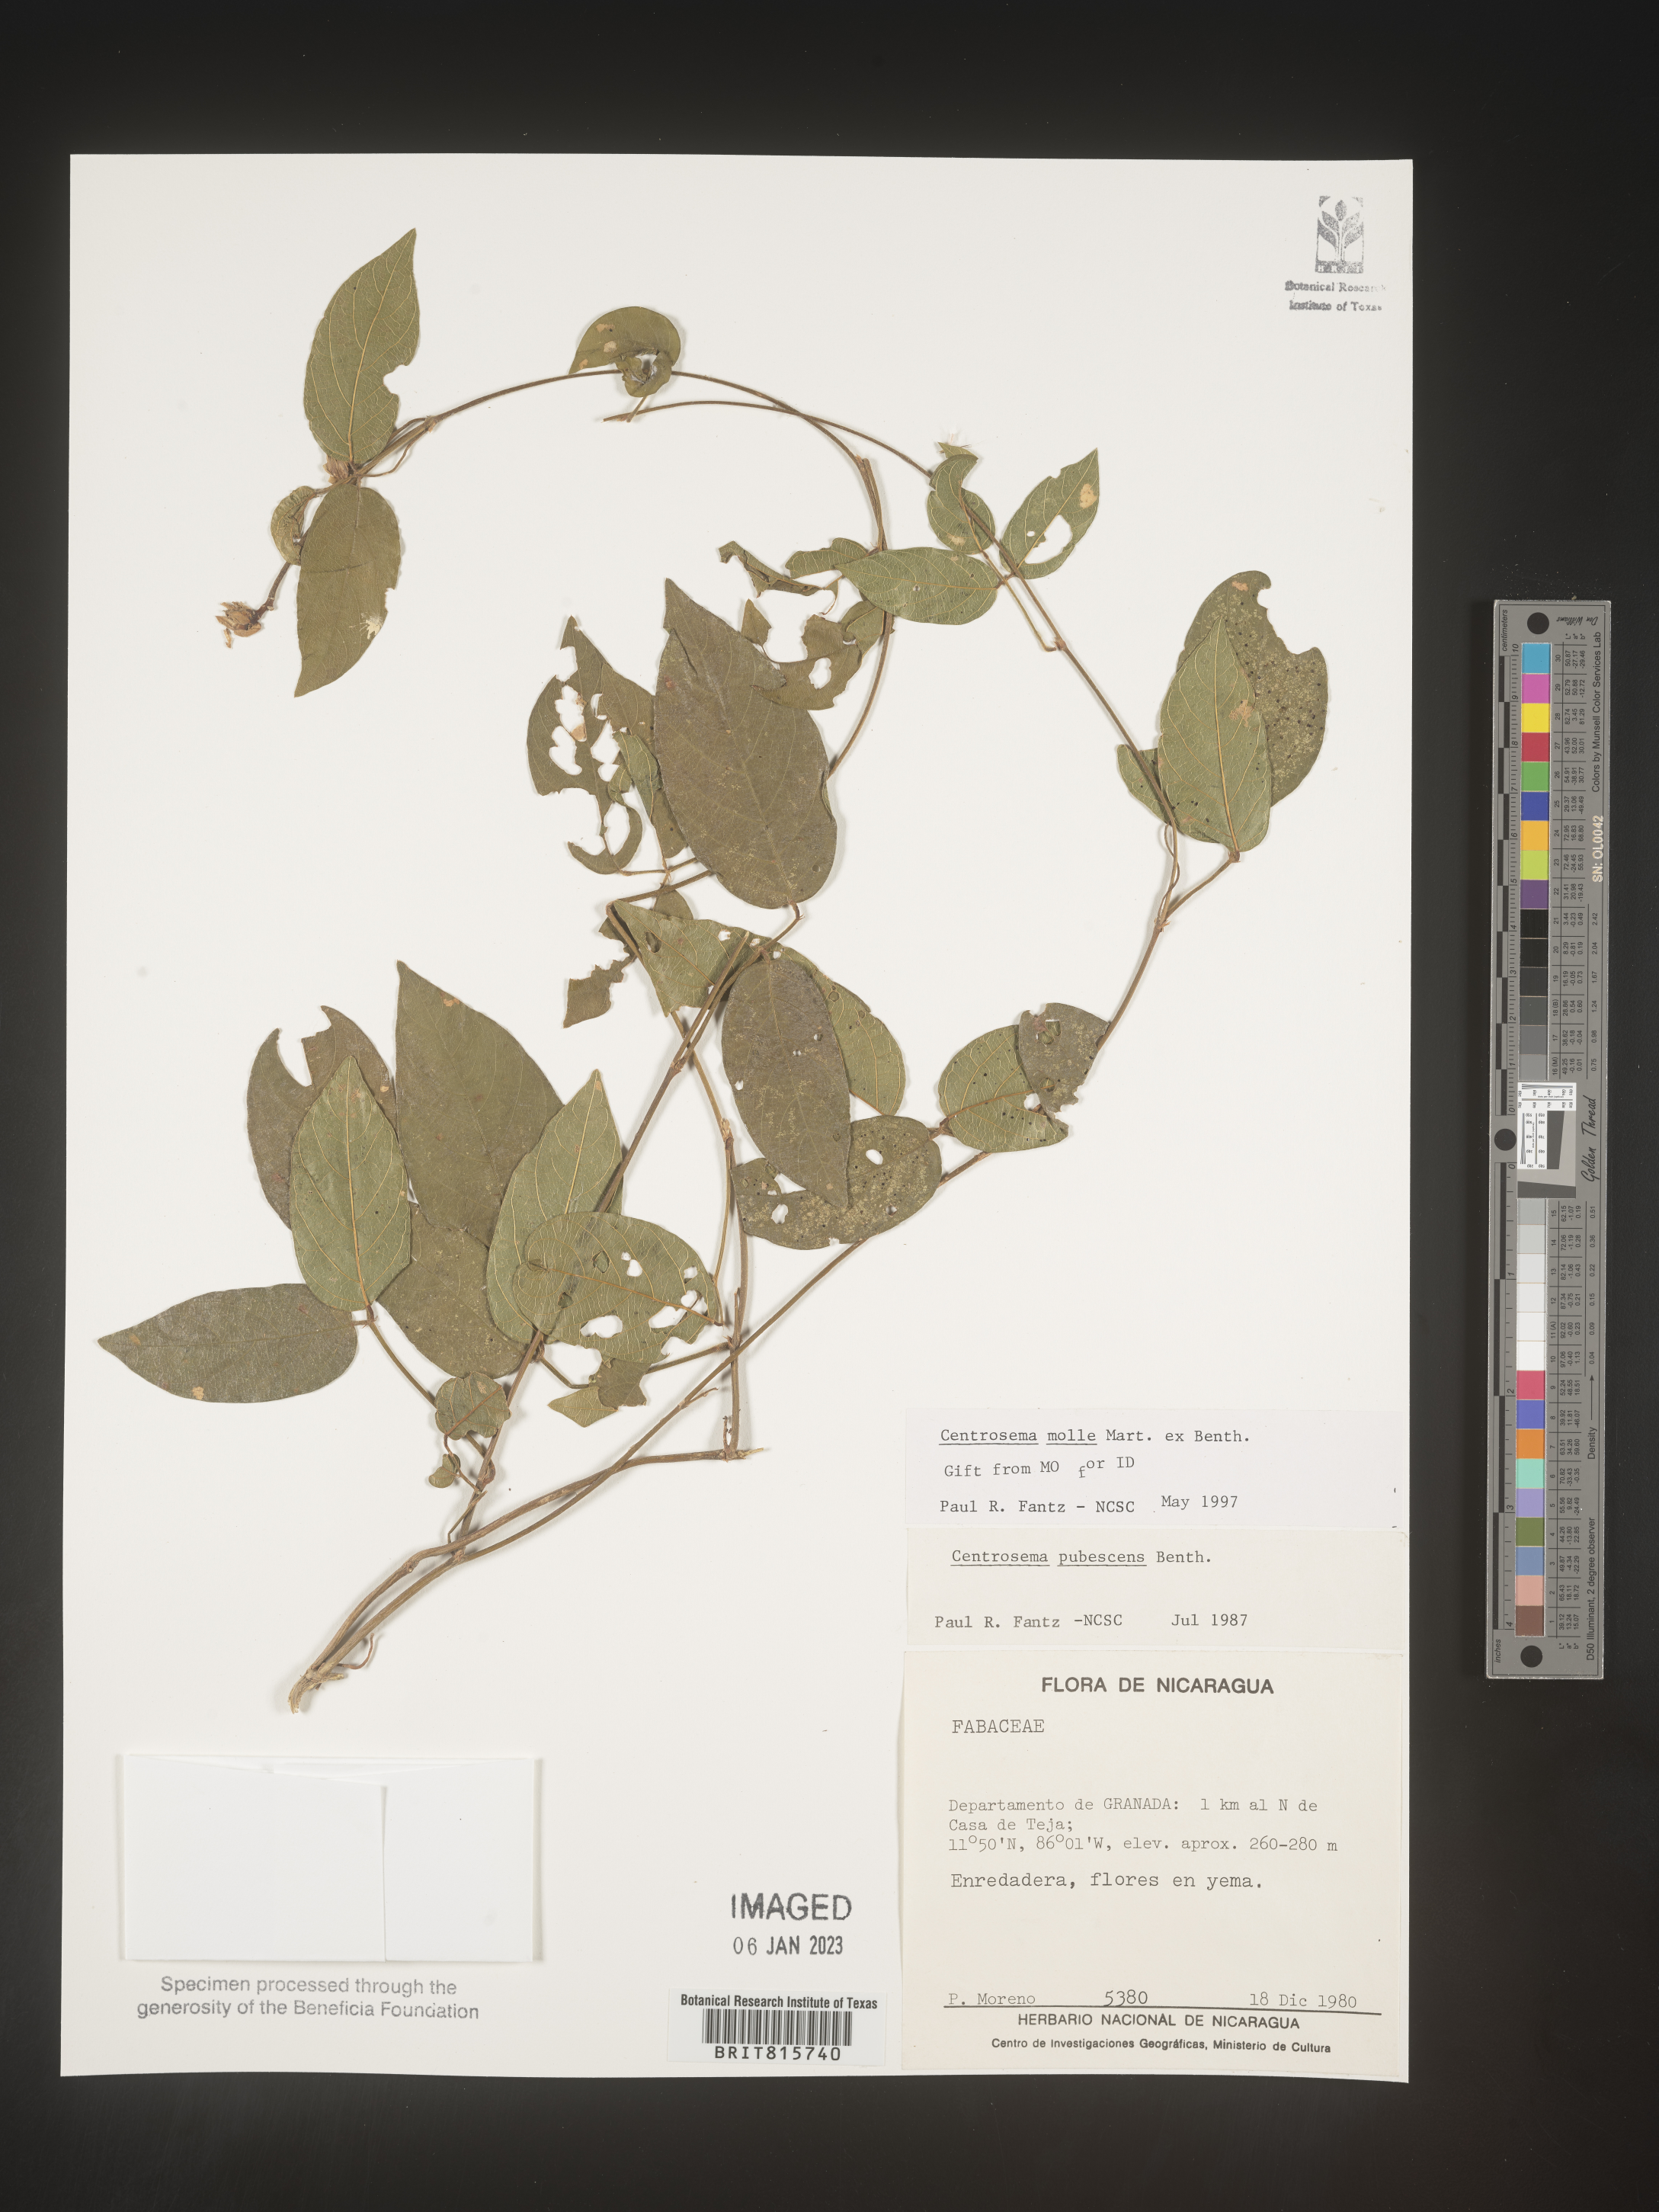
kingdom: Plantae
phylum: Tracheophyta
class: Magnoliopsida
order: Fabales
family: Fabaceae
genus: Centrosema
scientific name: Centrosema
